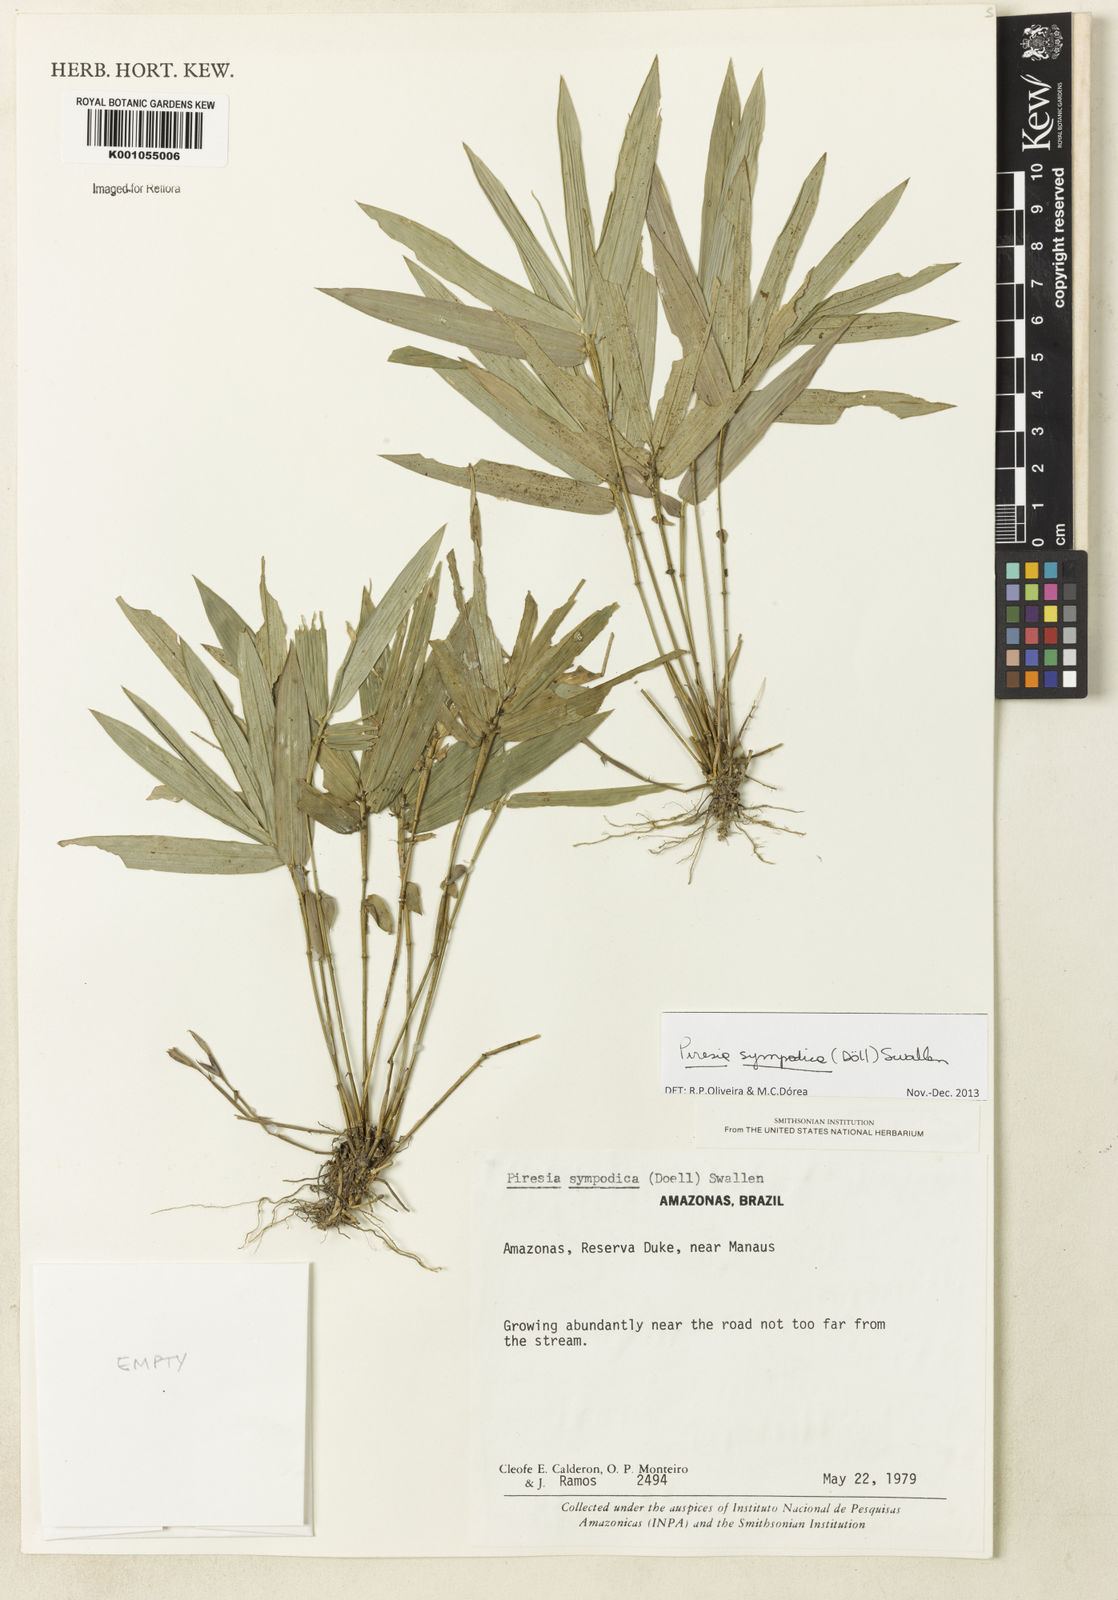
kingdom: Plantae
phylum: Tracheophyta
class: Liliopsida
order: Poales
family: Poaceae
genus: Piresia
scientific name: Piresia
